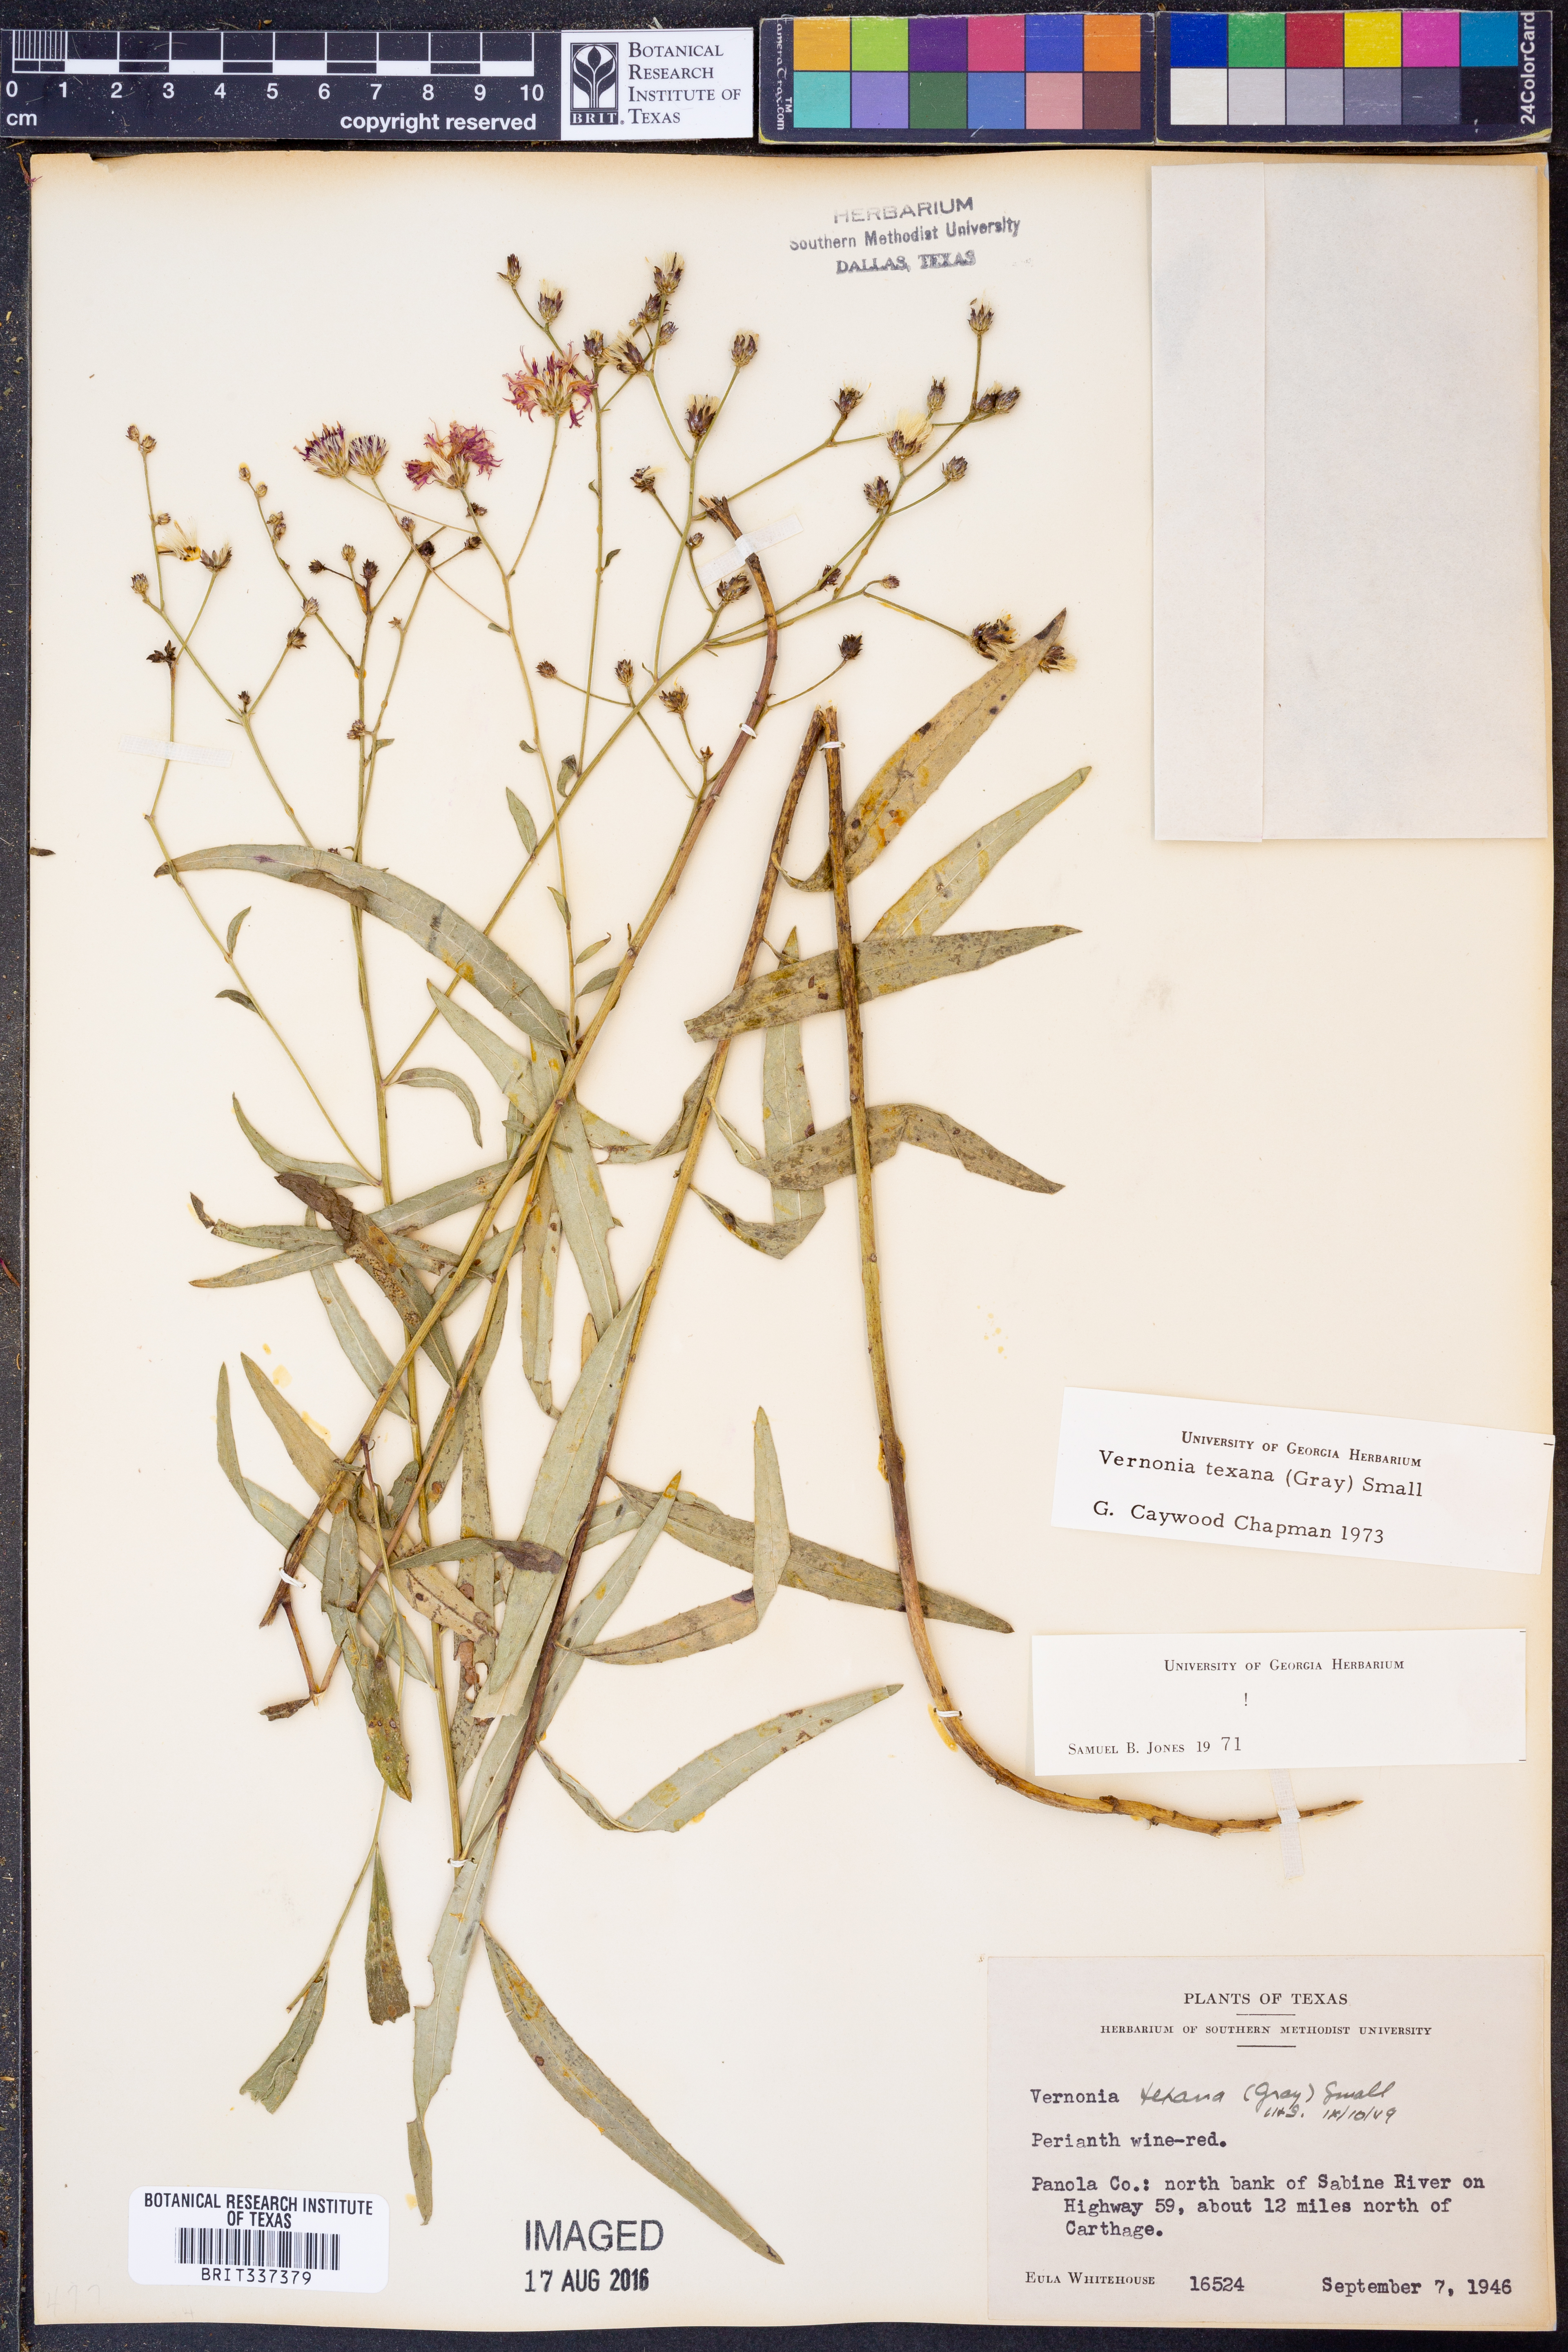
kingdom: Plantae
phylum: Tracheophyta
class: Magnoliopsida
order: Asterales
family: Asteraceae
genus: Vernonia
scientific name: Vernonia texana
